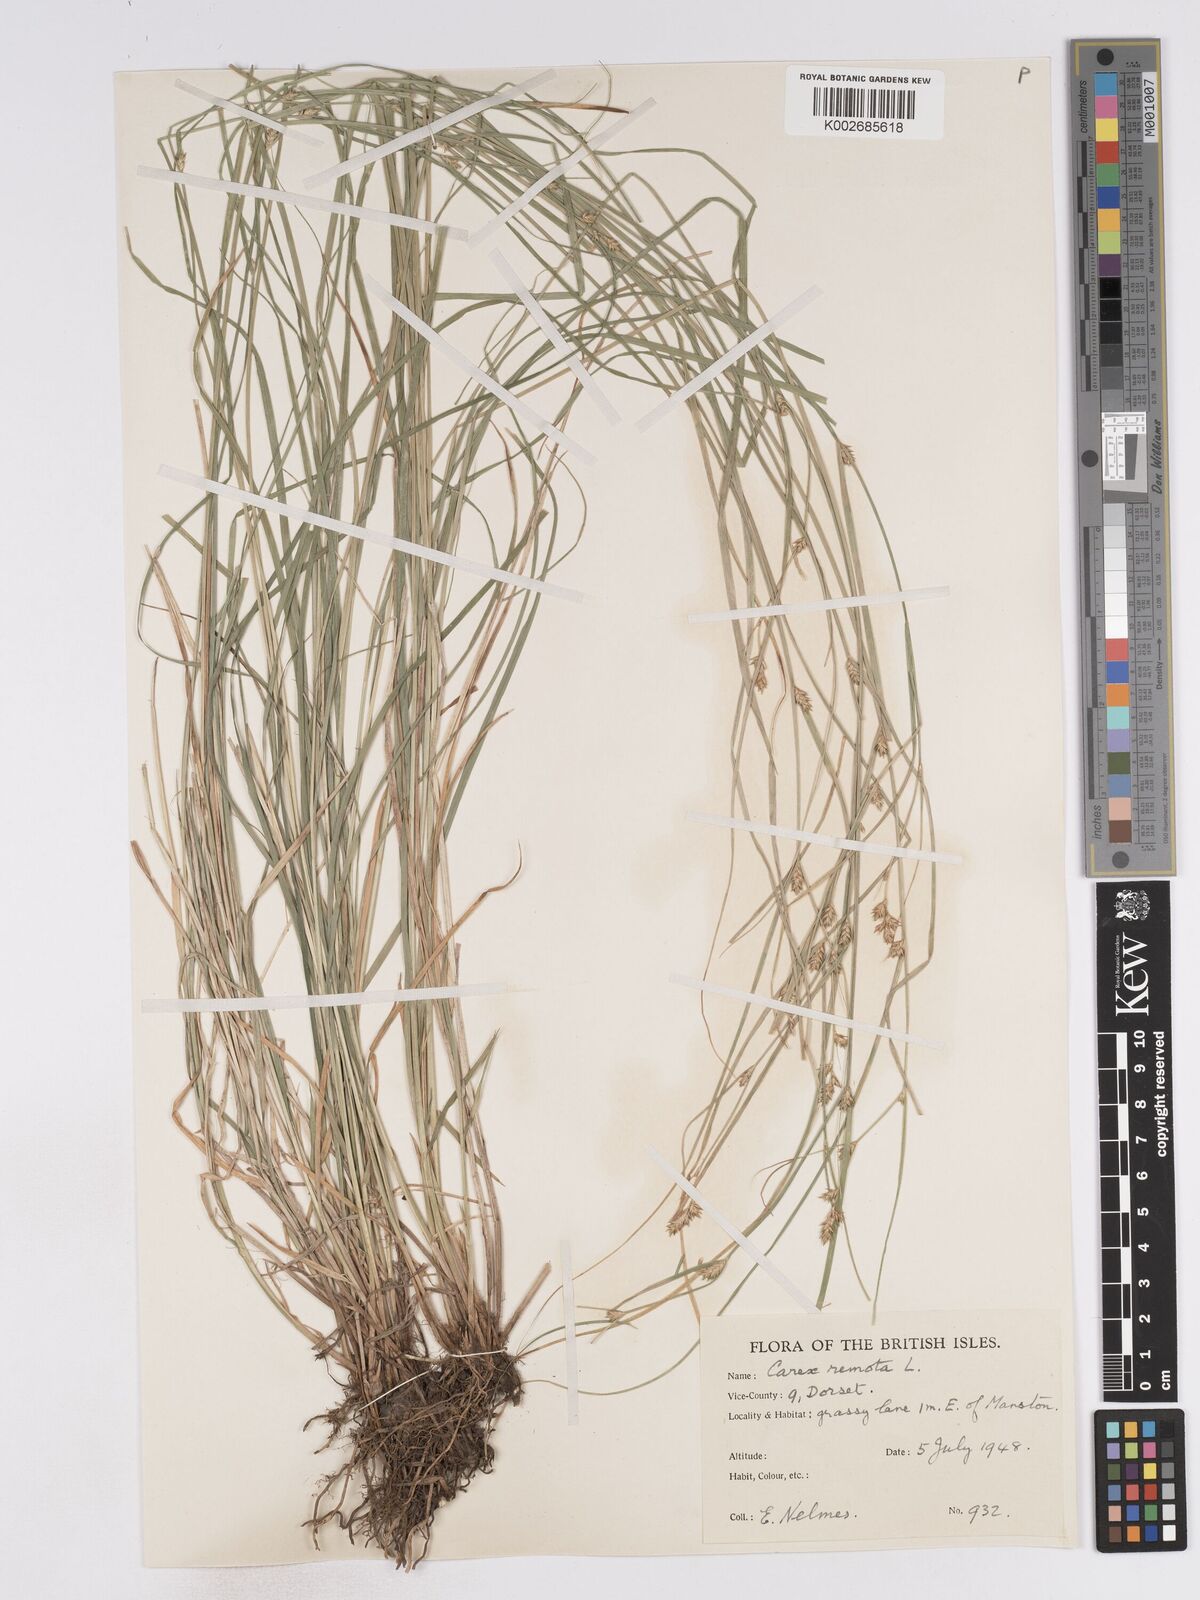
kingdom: Plantae
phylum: Tracheophyta
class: Liliopsida
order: Poales
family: Cyperaceae
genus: Carex
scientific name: Carex remota
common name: Remote sedge
